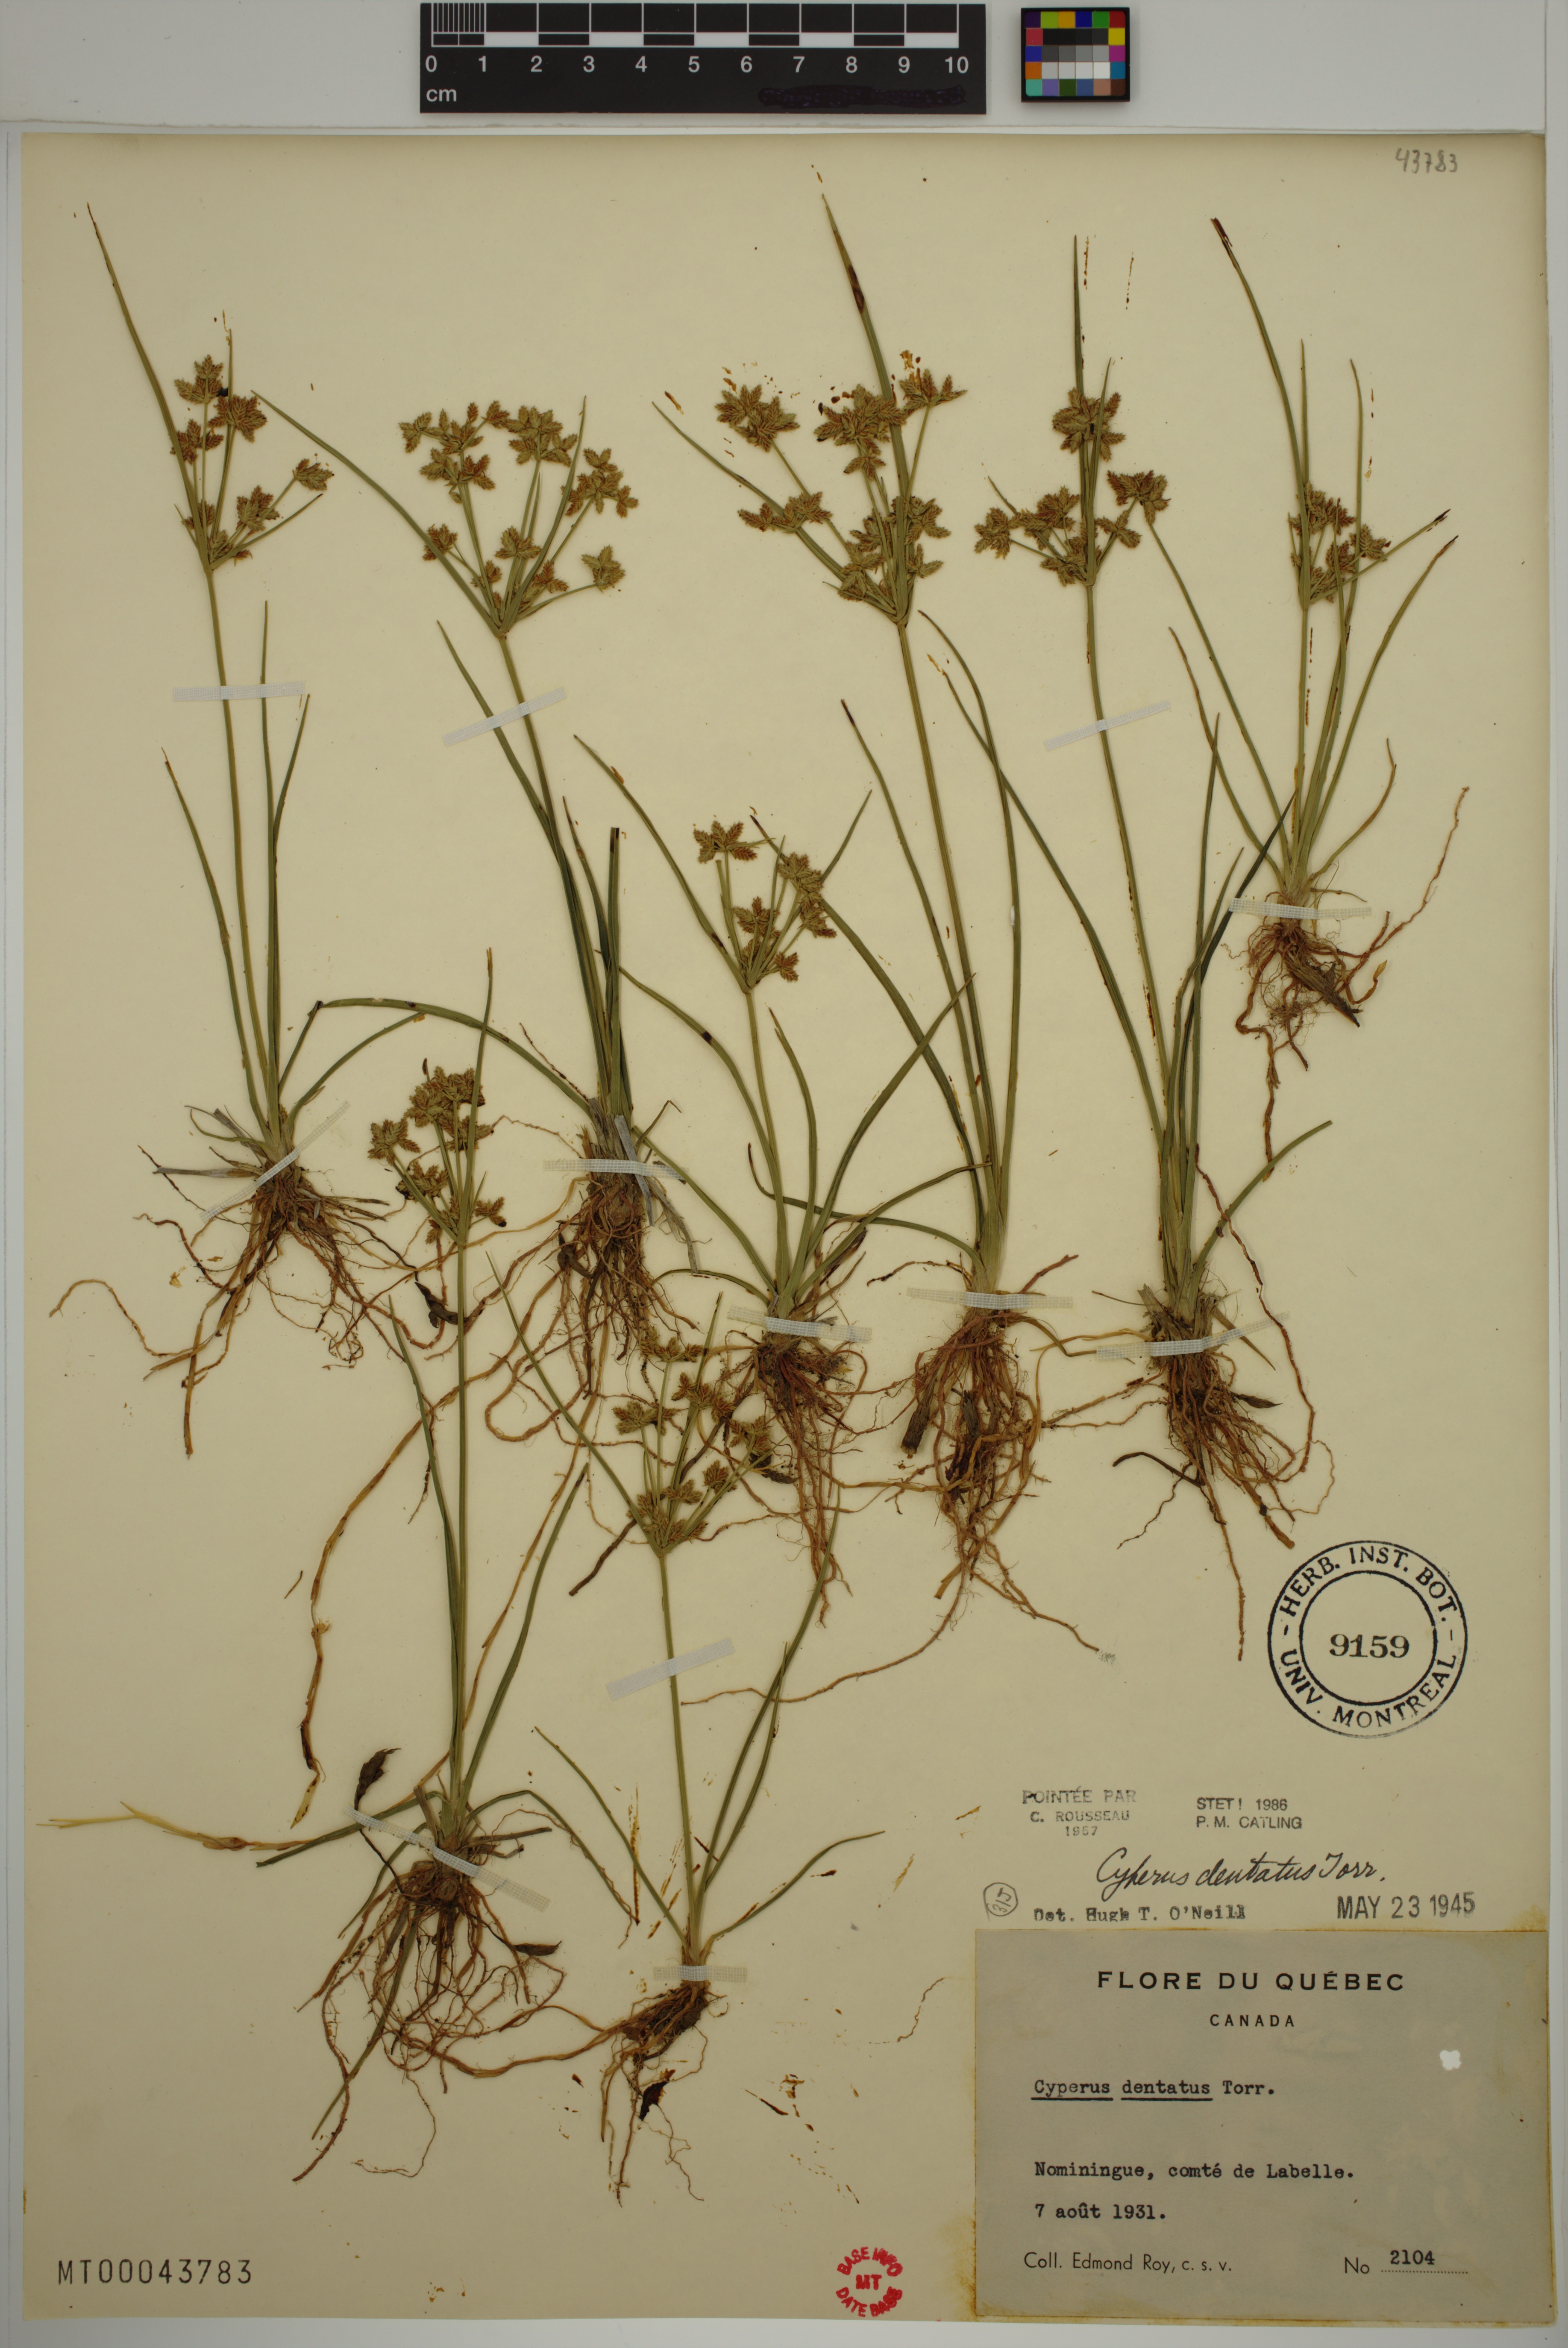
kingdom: Plantae
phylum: Tracheophyta
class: Liliopsida
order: Poales
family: Cyperaceae
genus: Cyperus
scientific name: Cyperus dentatus
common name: Dentate umbrella sedge
